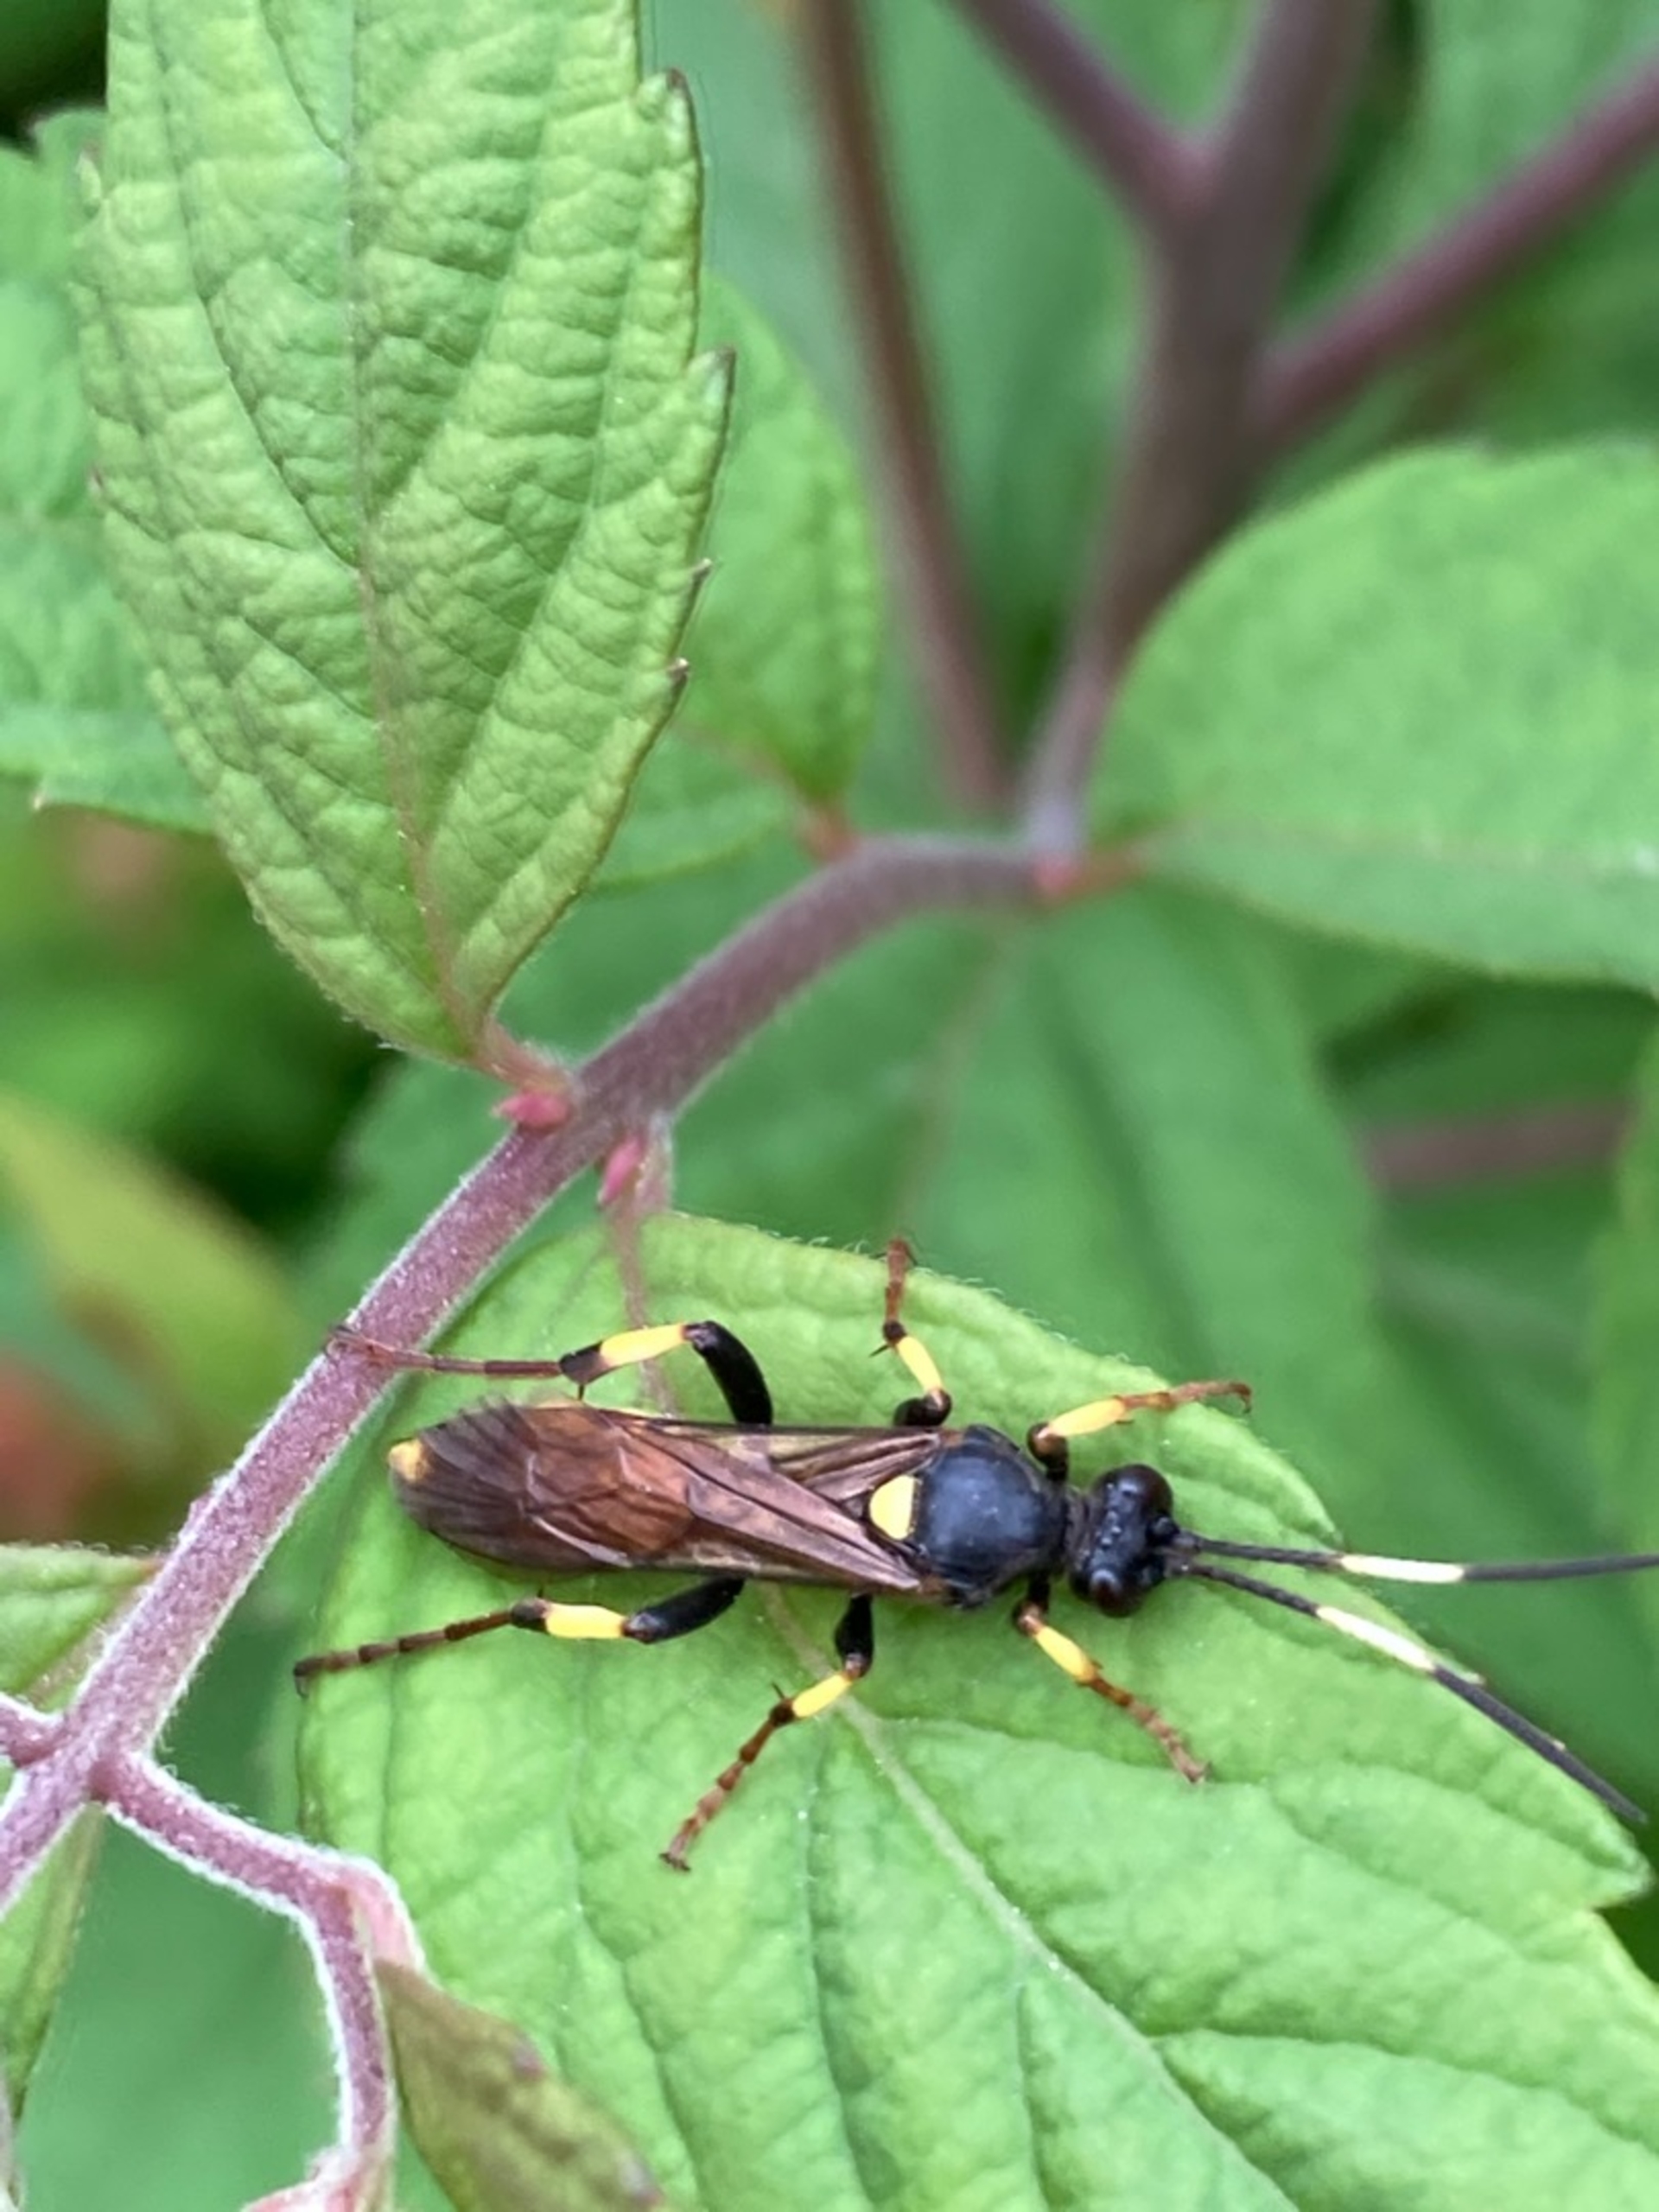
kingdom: Animalia
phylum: Arthropoda
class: Insecta
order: Hymenoptera
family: Ichneumonidae
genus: Ichneumon
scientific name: Ichneumon stramentor
